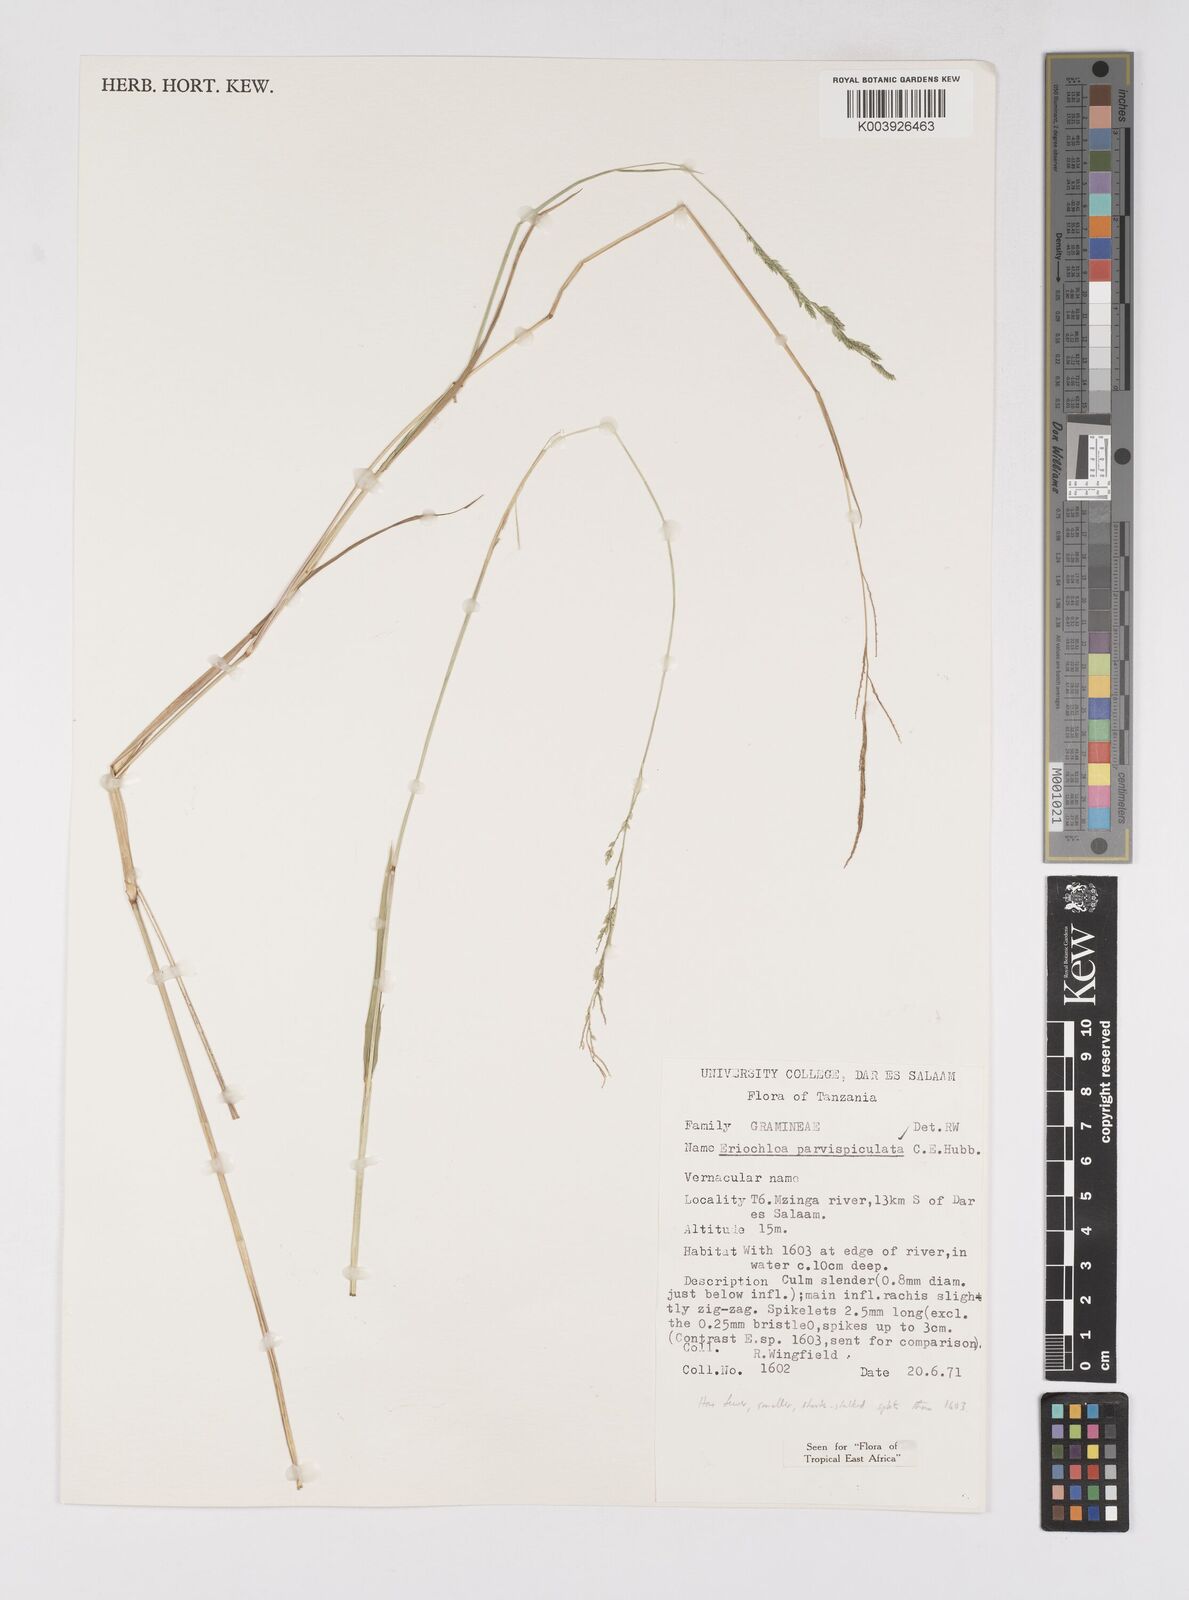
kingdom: Plantae
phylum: Tracheophyta
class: Liliopsida
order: Poales
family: Poaceae
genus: Eriochloa
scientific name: Eriochloa parvispiculata
